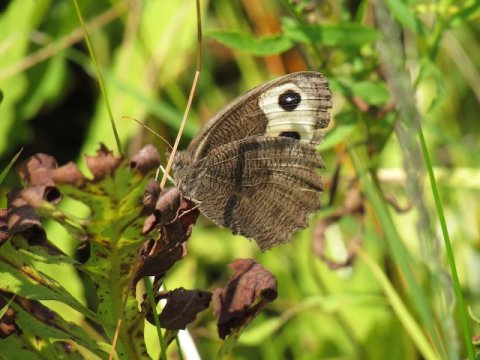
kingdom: Animalia
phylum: Arthropoda
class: Insecta
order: Lepidoptera
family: Nymphalidae
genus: Cercyonis
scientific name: Cercyonis pegala
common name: Common Wood-Nymph
